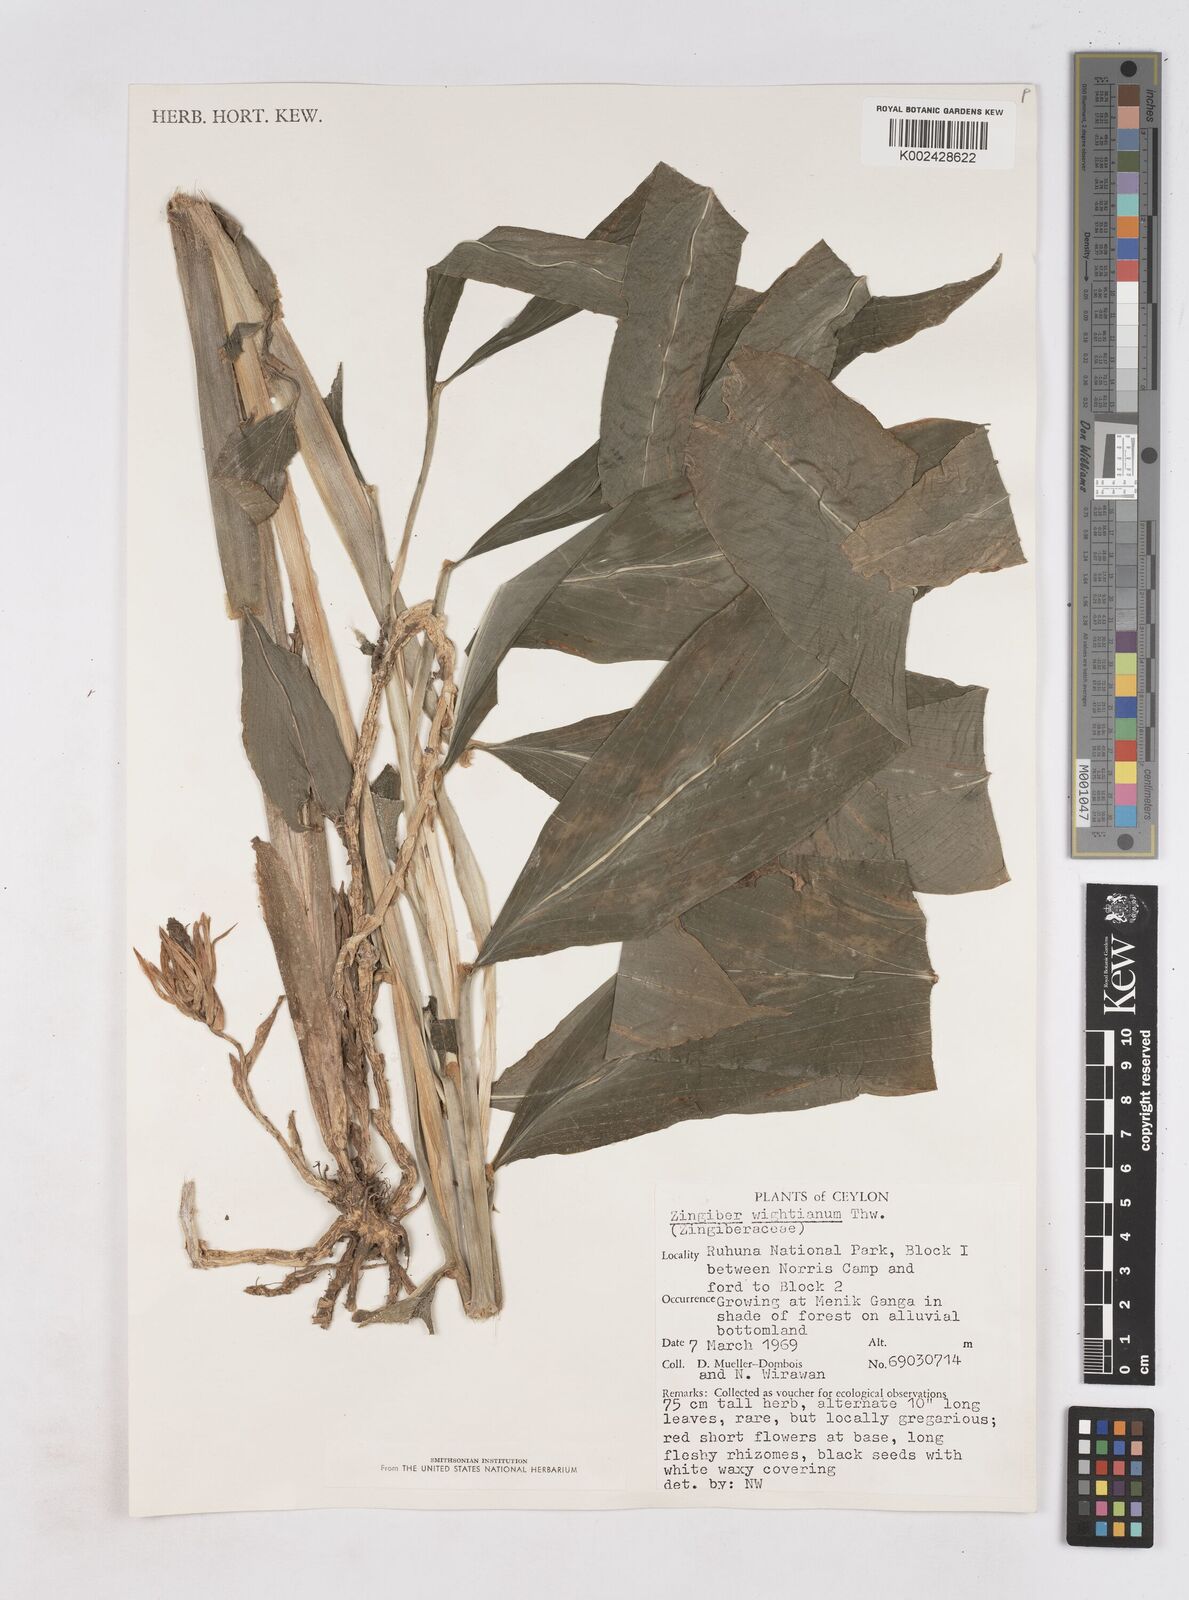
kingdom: Plantae
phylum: Tracheophyta
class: Liliopsida
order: Zingiberales
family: Zingiberaceae
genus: Zingiber
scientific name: Zingiber wightianum
